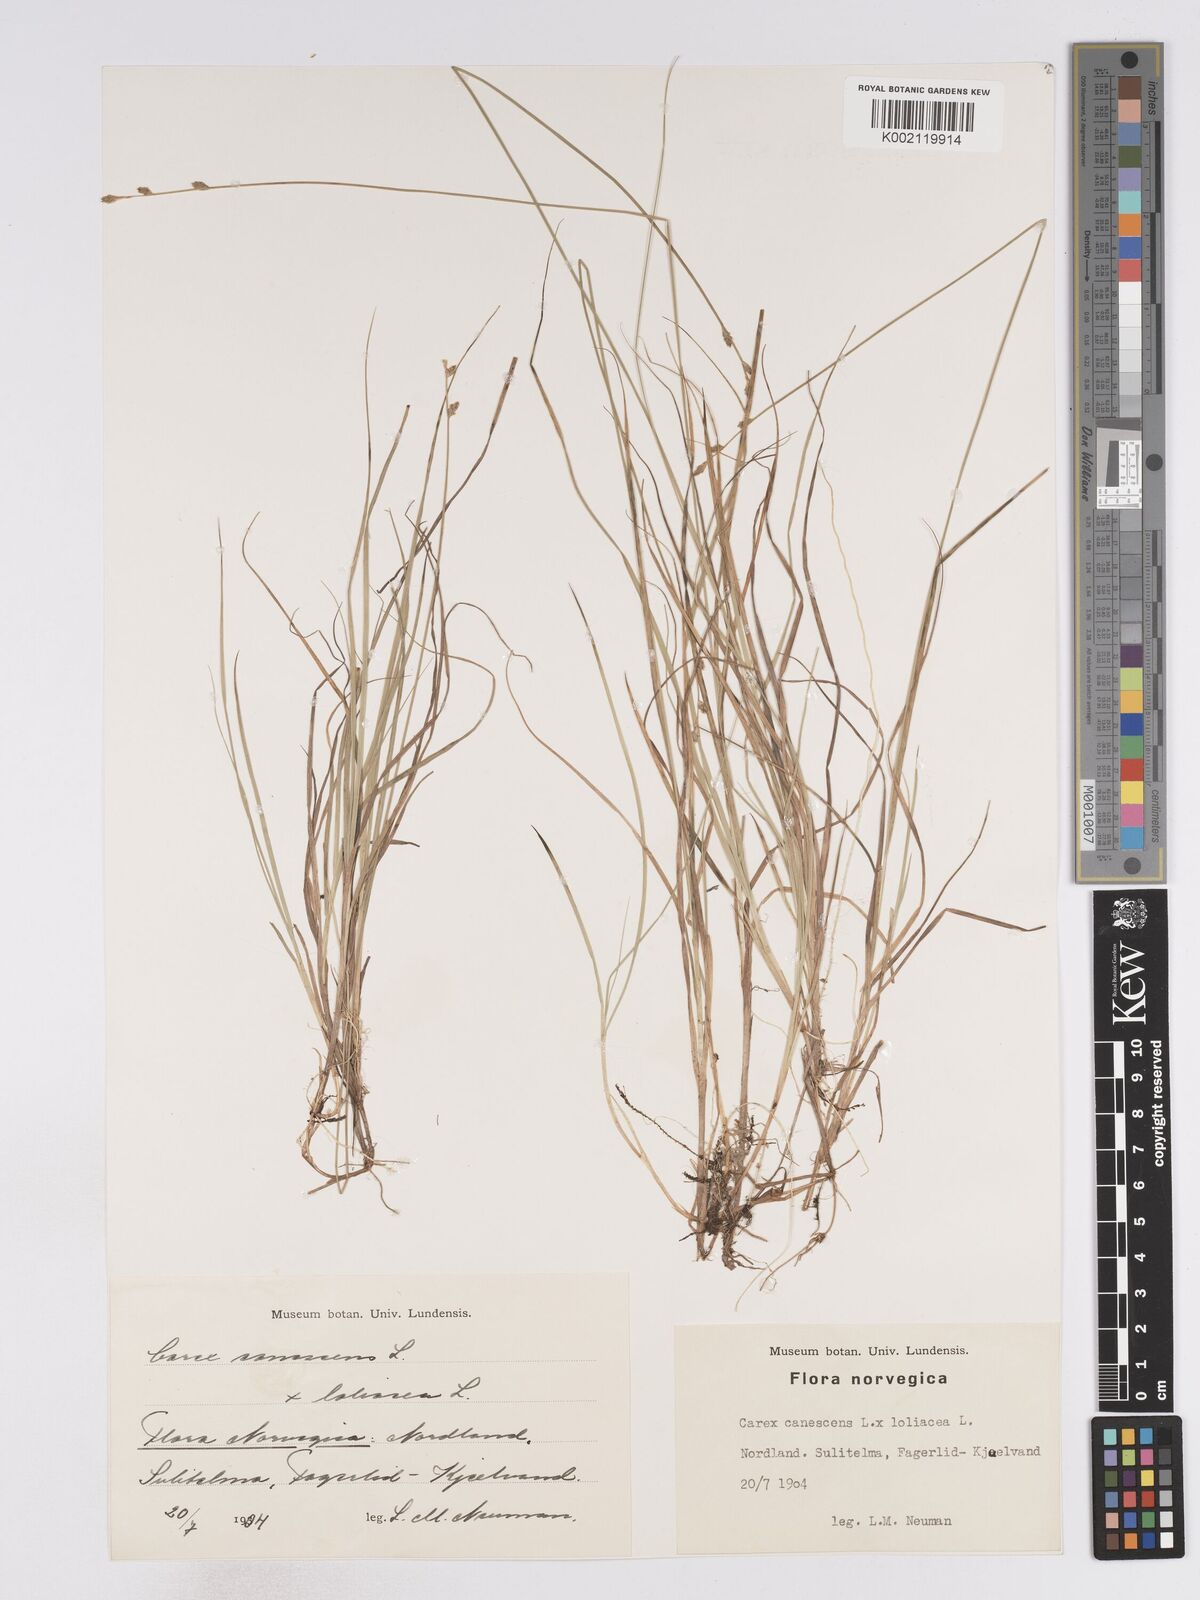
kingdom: Plantae
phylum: Tracheophyta
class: Liliopsida
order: Poales
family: Cyperaceae
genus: Carex
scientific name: Carex curta
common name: White sedge
